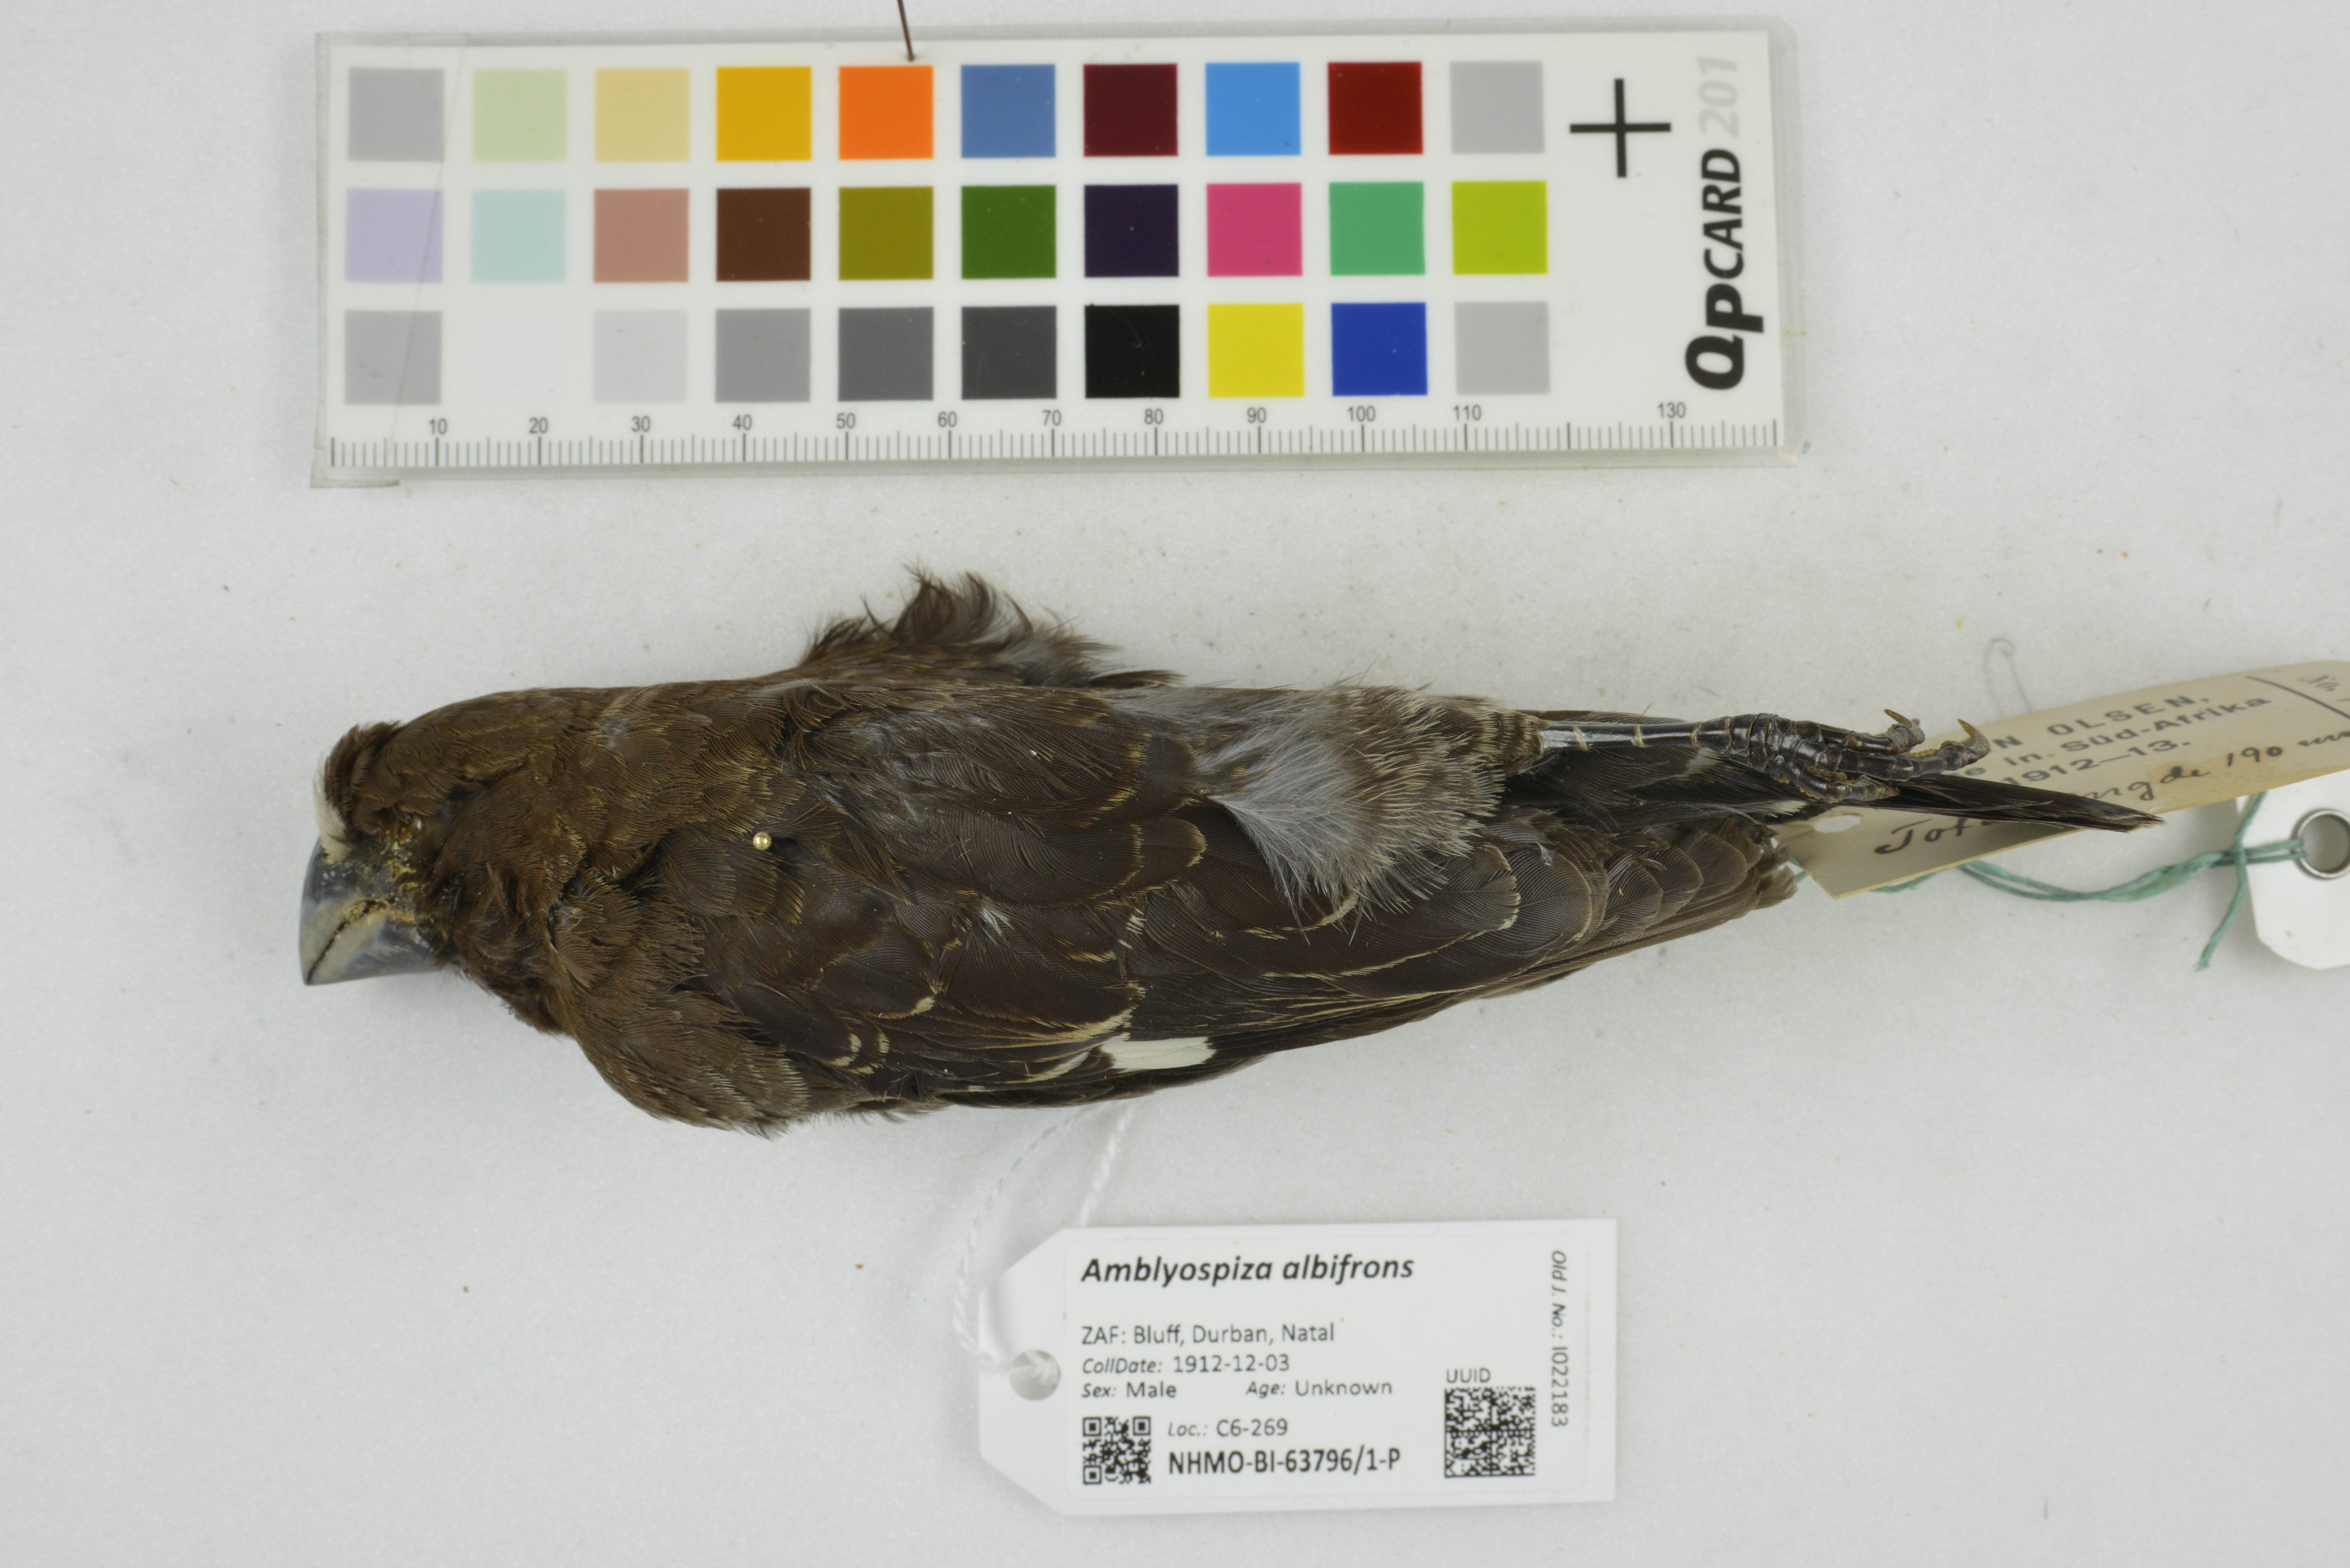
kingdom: Animalia
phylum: Chordata
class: Aves
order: Passeriformes
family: Ploceidae
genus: Amblyospiza
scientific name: Amblyospiza albifrons
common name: Thick-billed weaver
